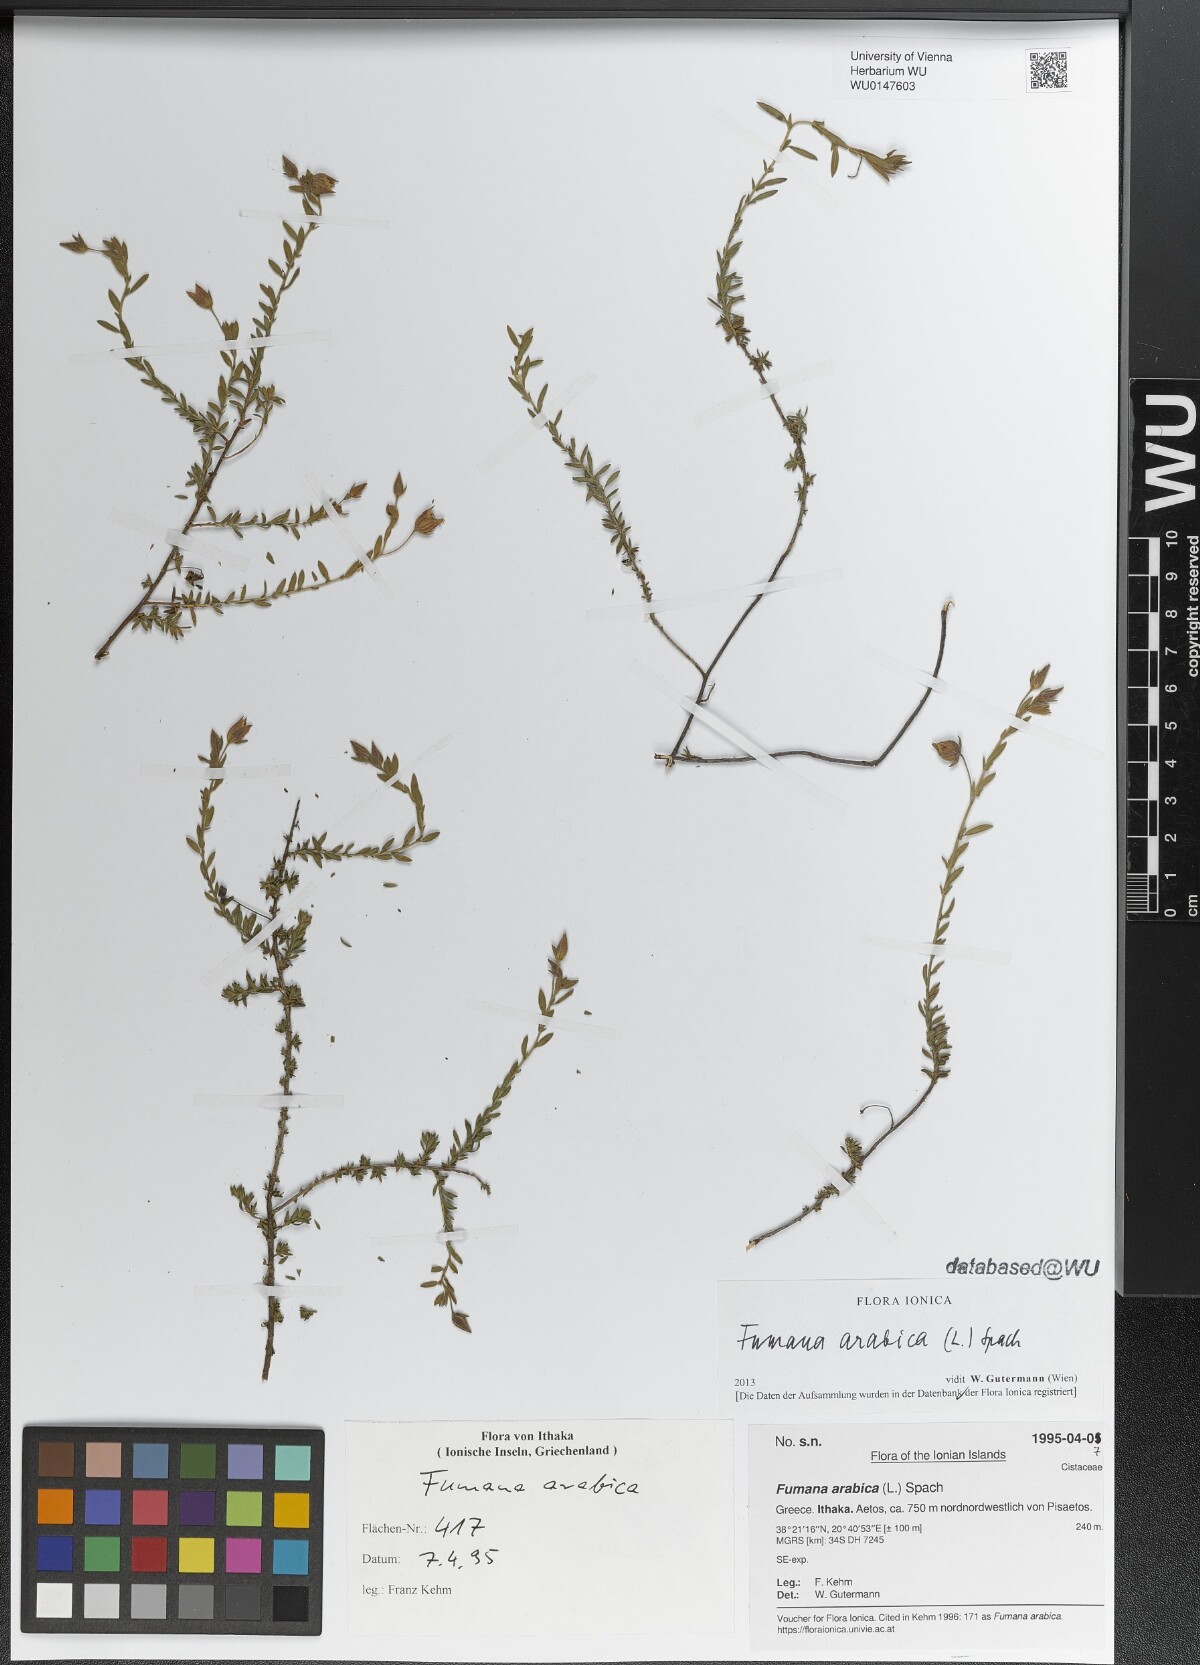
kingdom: Plantae
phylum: Tracheophyta
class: Magnoliopsida
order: Malvales
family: Cistaceae
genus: Fumana
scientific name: Fumana arabica
